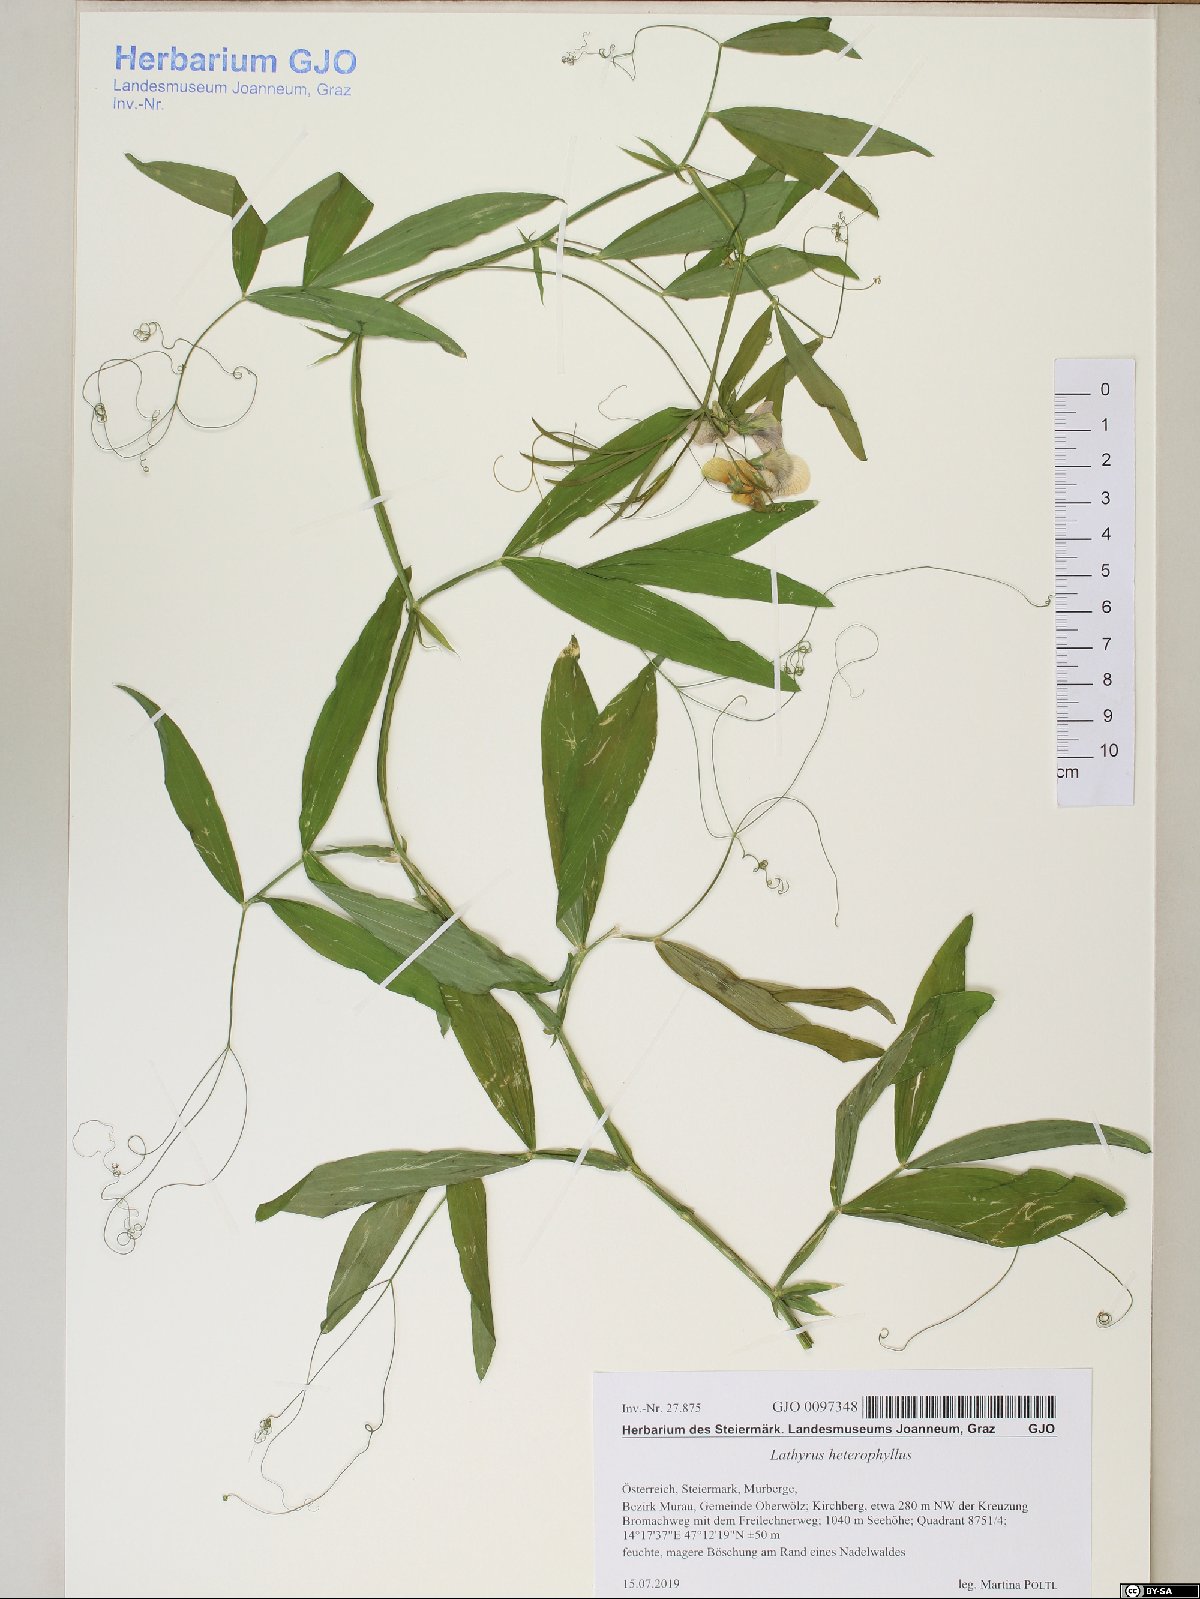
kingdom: Plantae
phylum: Tracheophyta
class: Magnoliopsida
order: Fabales
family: Fabaceae
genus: Lathyrus
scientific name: Lathyrus heterophyllus
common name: Norfolk everlasting-pea
